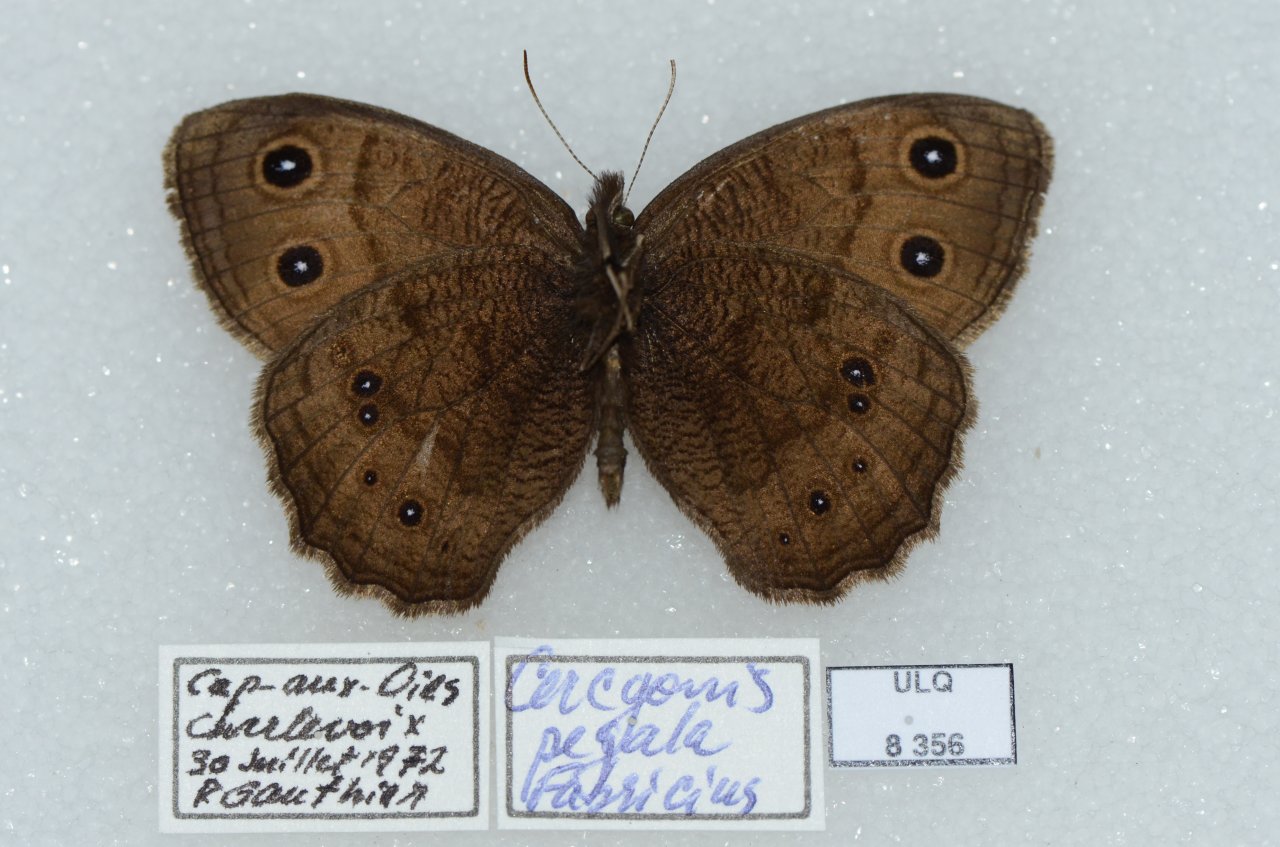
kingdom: Animalia
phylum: Arthropoda
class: Insecta
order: Lepidoptera
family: Nymphalidae
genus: Cercyonis
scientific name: Cercyonis pegala
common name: Common Wood-Nymph
